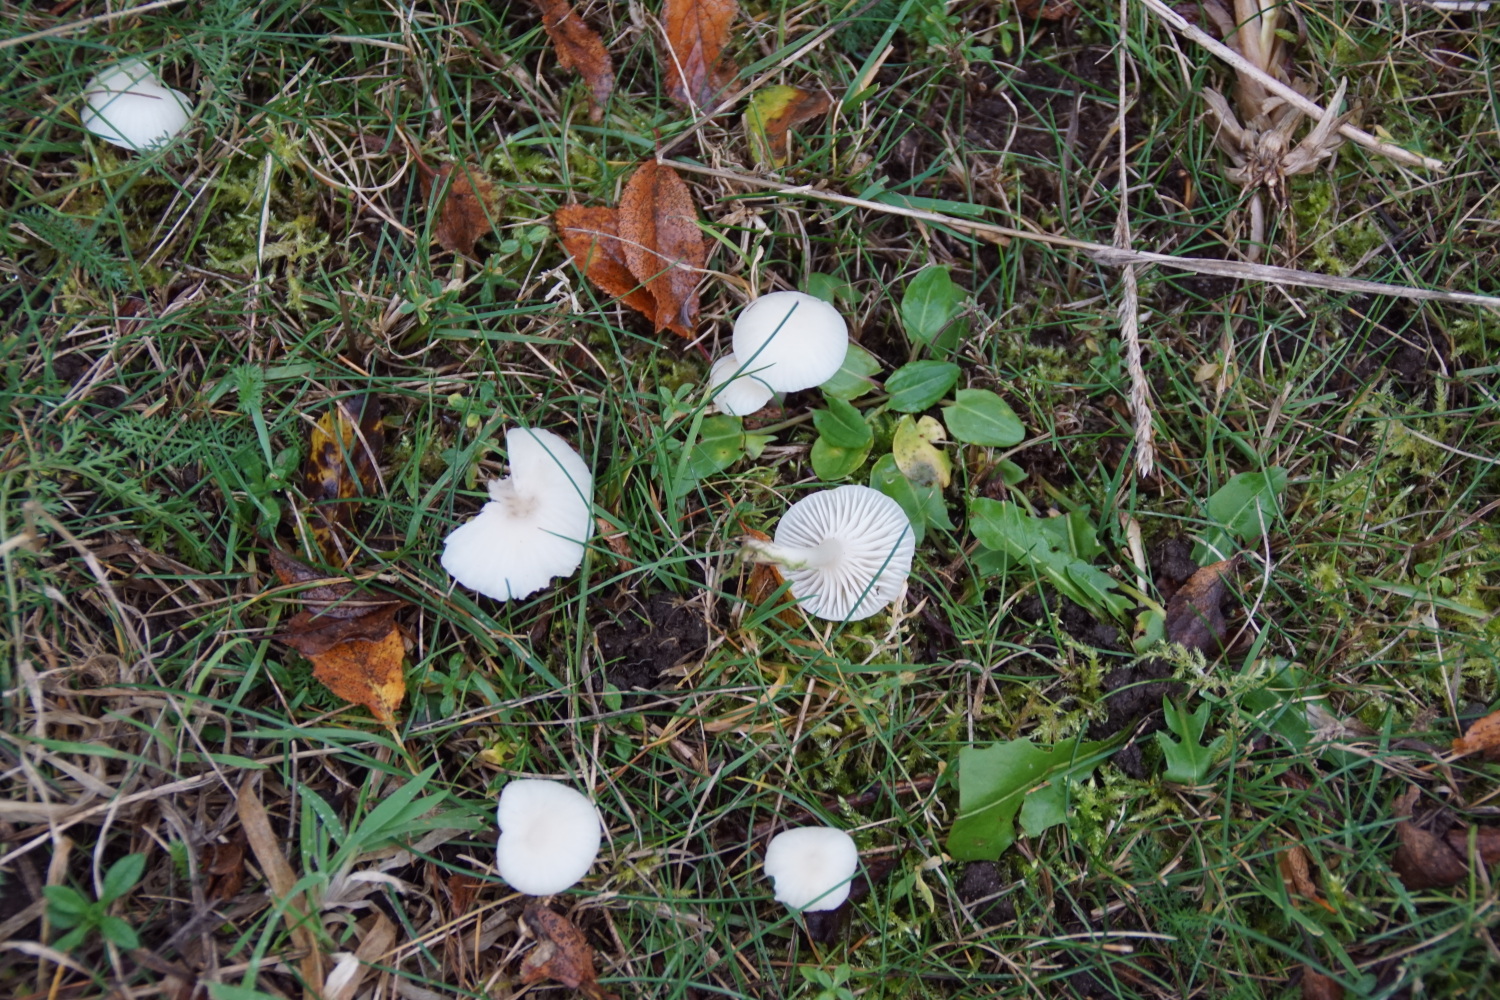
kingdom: Fungi
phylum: Basidiomycota
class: Agaricomycetes
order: Agaricales
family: Hygrophoraceae
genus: Cuphophyllus
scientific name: Cuphophyllus virgineus
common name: snehvid vokshat
